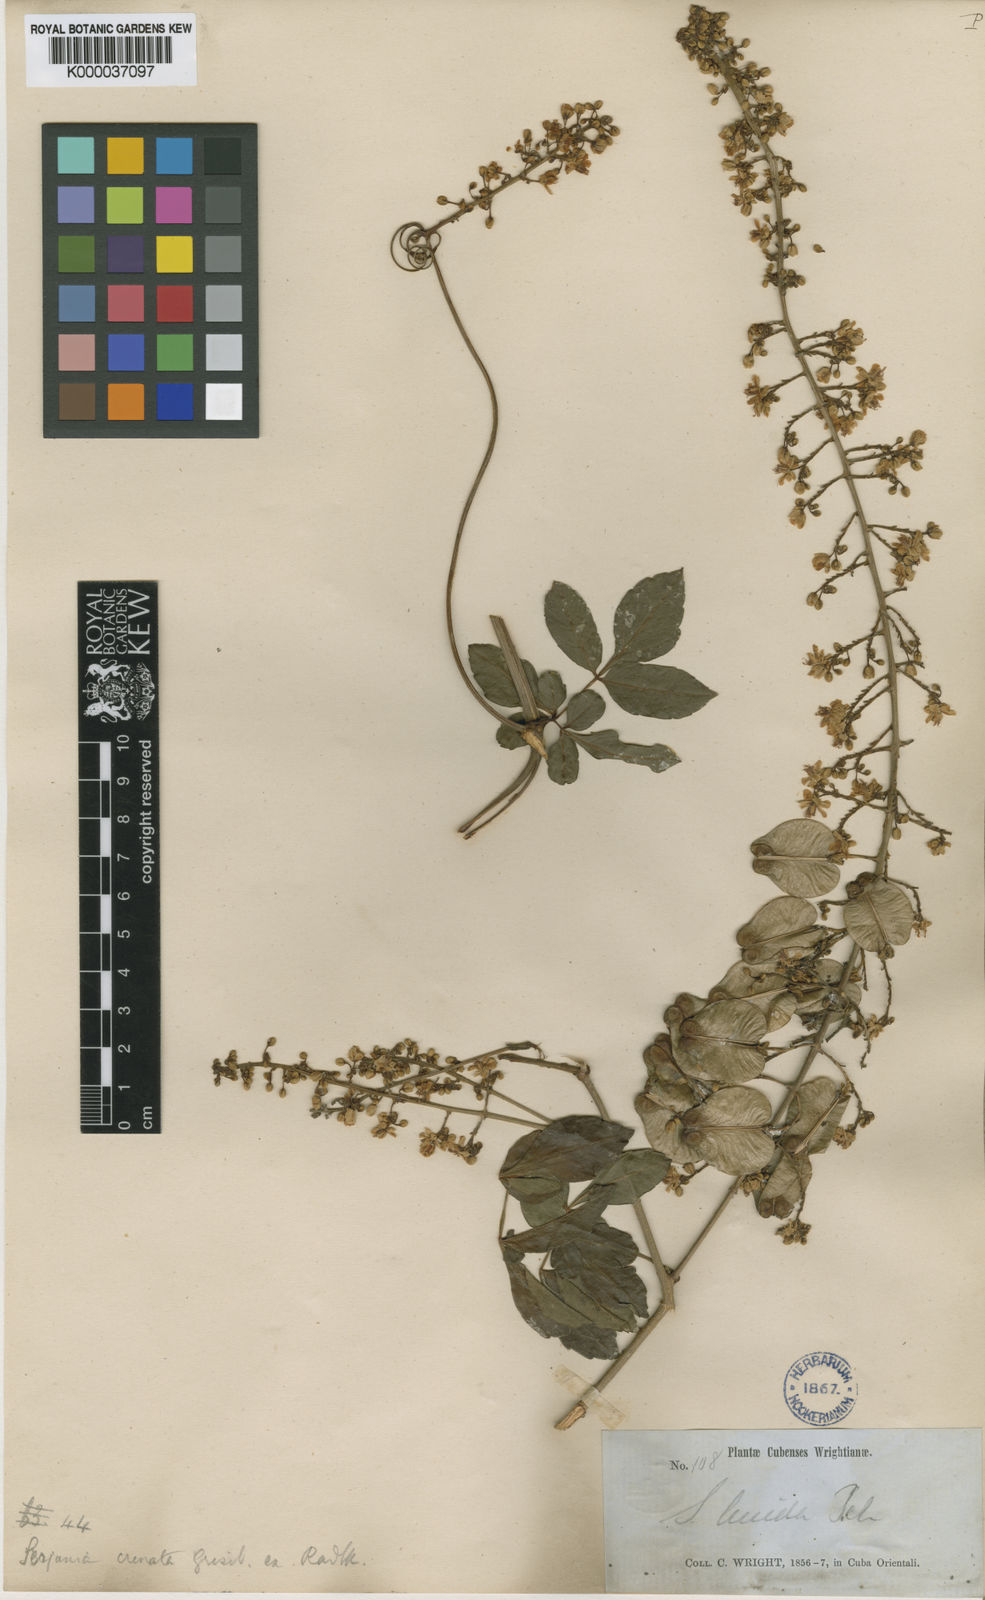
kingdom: Plantae
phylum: Tracheophyta
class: Magnoliopsida
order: Sapindales
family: Sapindaceae
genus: Serjania
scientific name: Serjania
